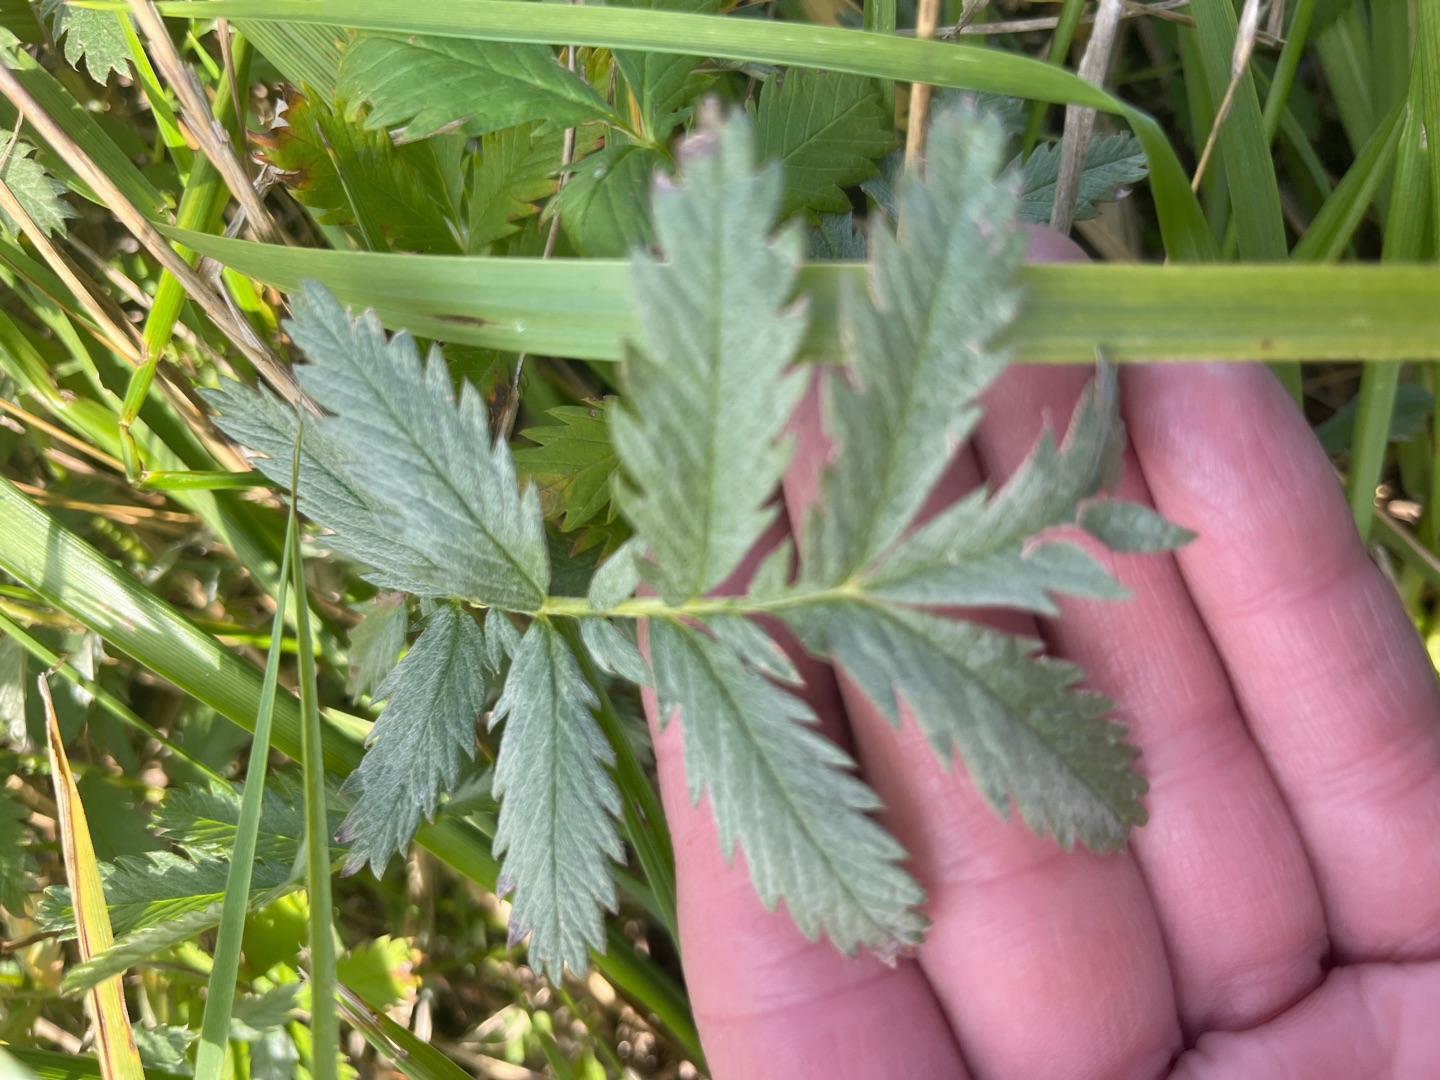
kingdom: Plantae
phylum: Tracheophyta
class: Magnoliopsida
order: Rosales
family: Rosaceae
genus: Argentina
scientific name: Argentina anserina
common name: Gåsepotentil
